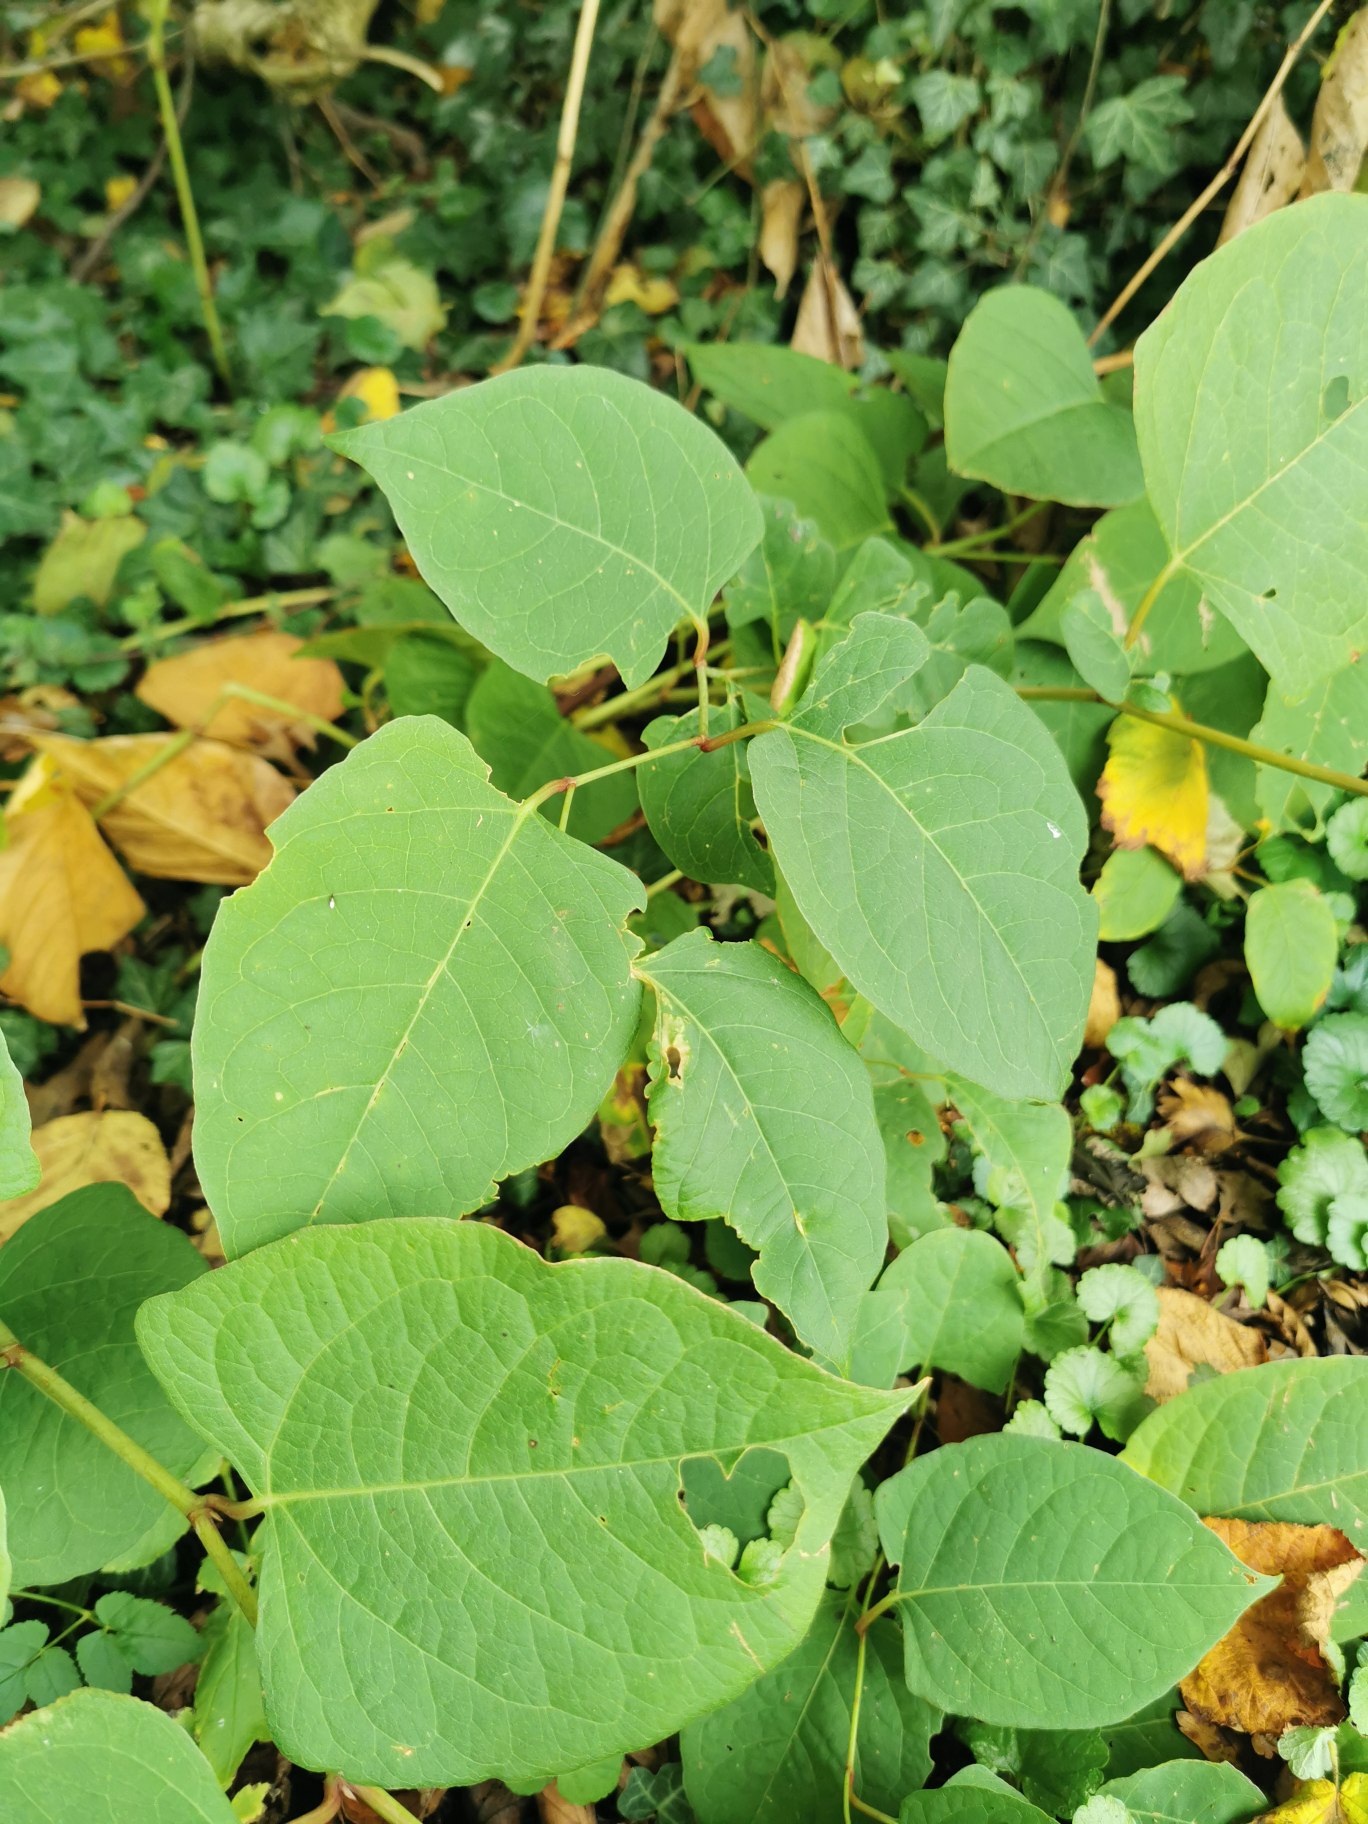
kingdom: Plantae
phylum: Tracheophyta
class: Magnoliopsida
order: Caryophyllales
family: Polygonaceae
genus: Reynoutria
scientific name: Reynoutria japonica
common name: Japan-pileurt
